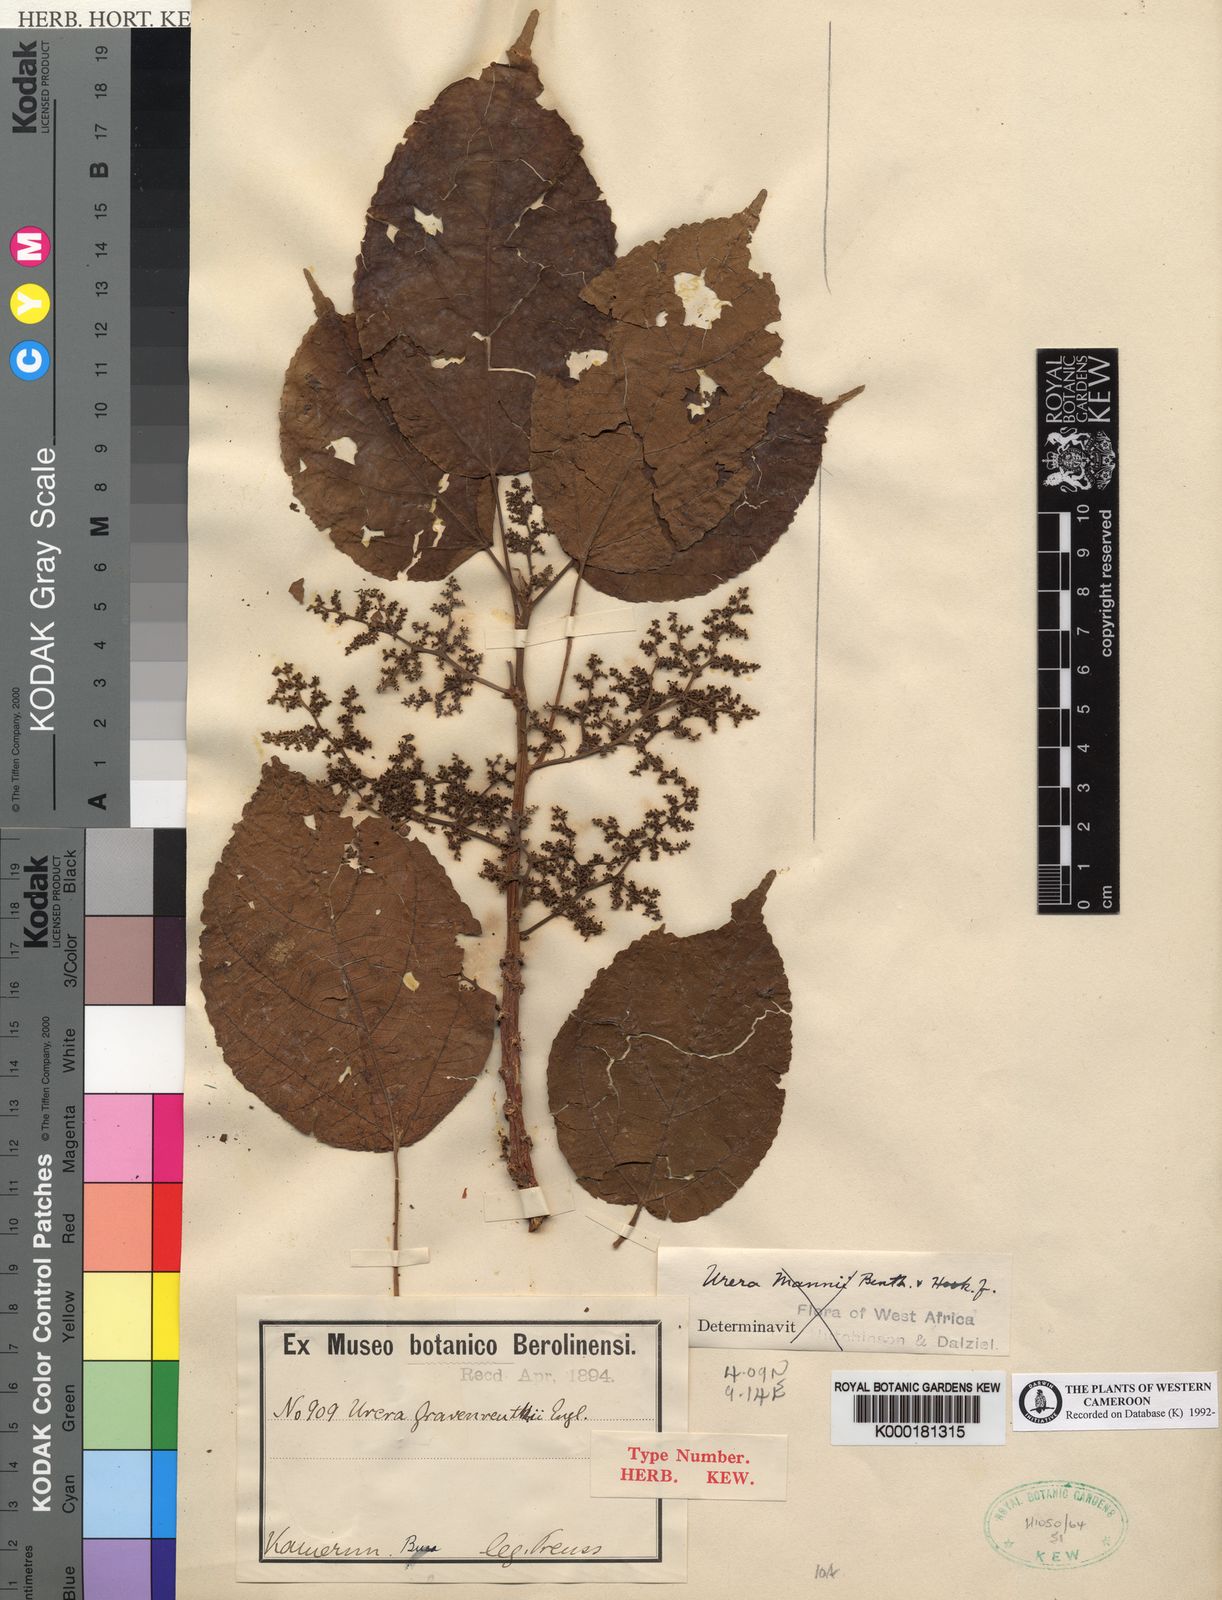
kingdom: Plantae
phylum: Tracheophyta
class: Magnoliopsida
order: Rosales
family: Urticaceae
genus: Scepocarpus
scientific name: Scepocarpus
